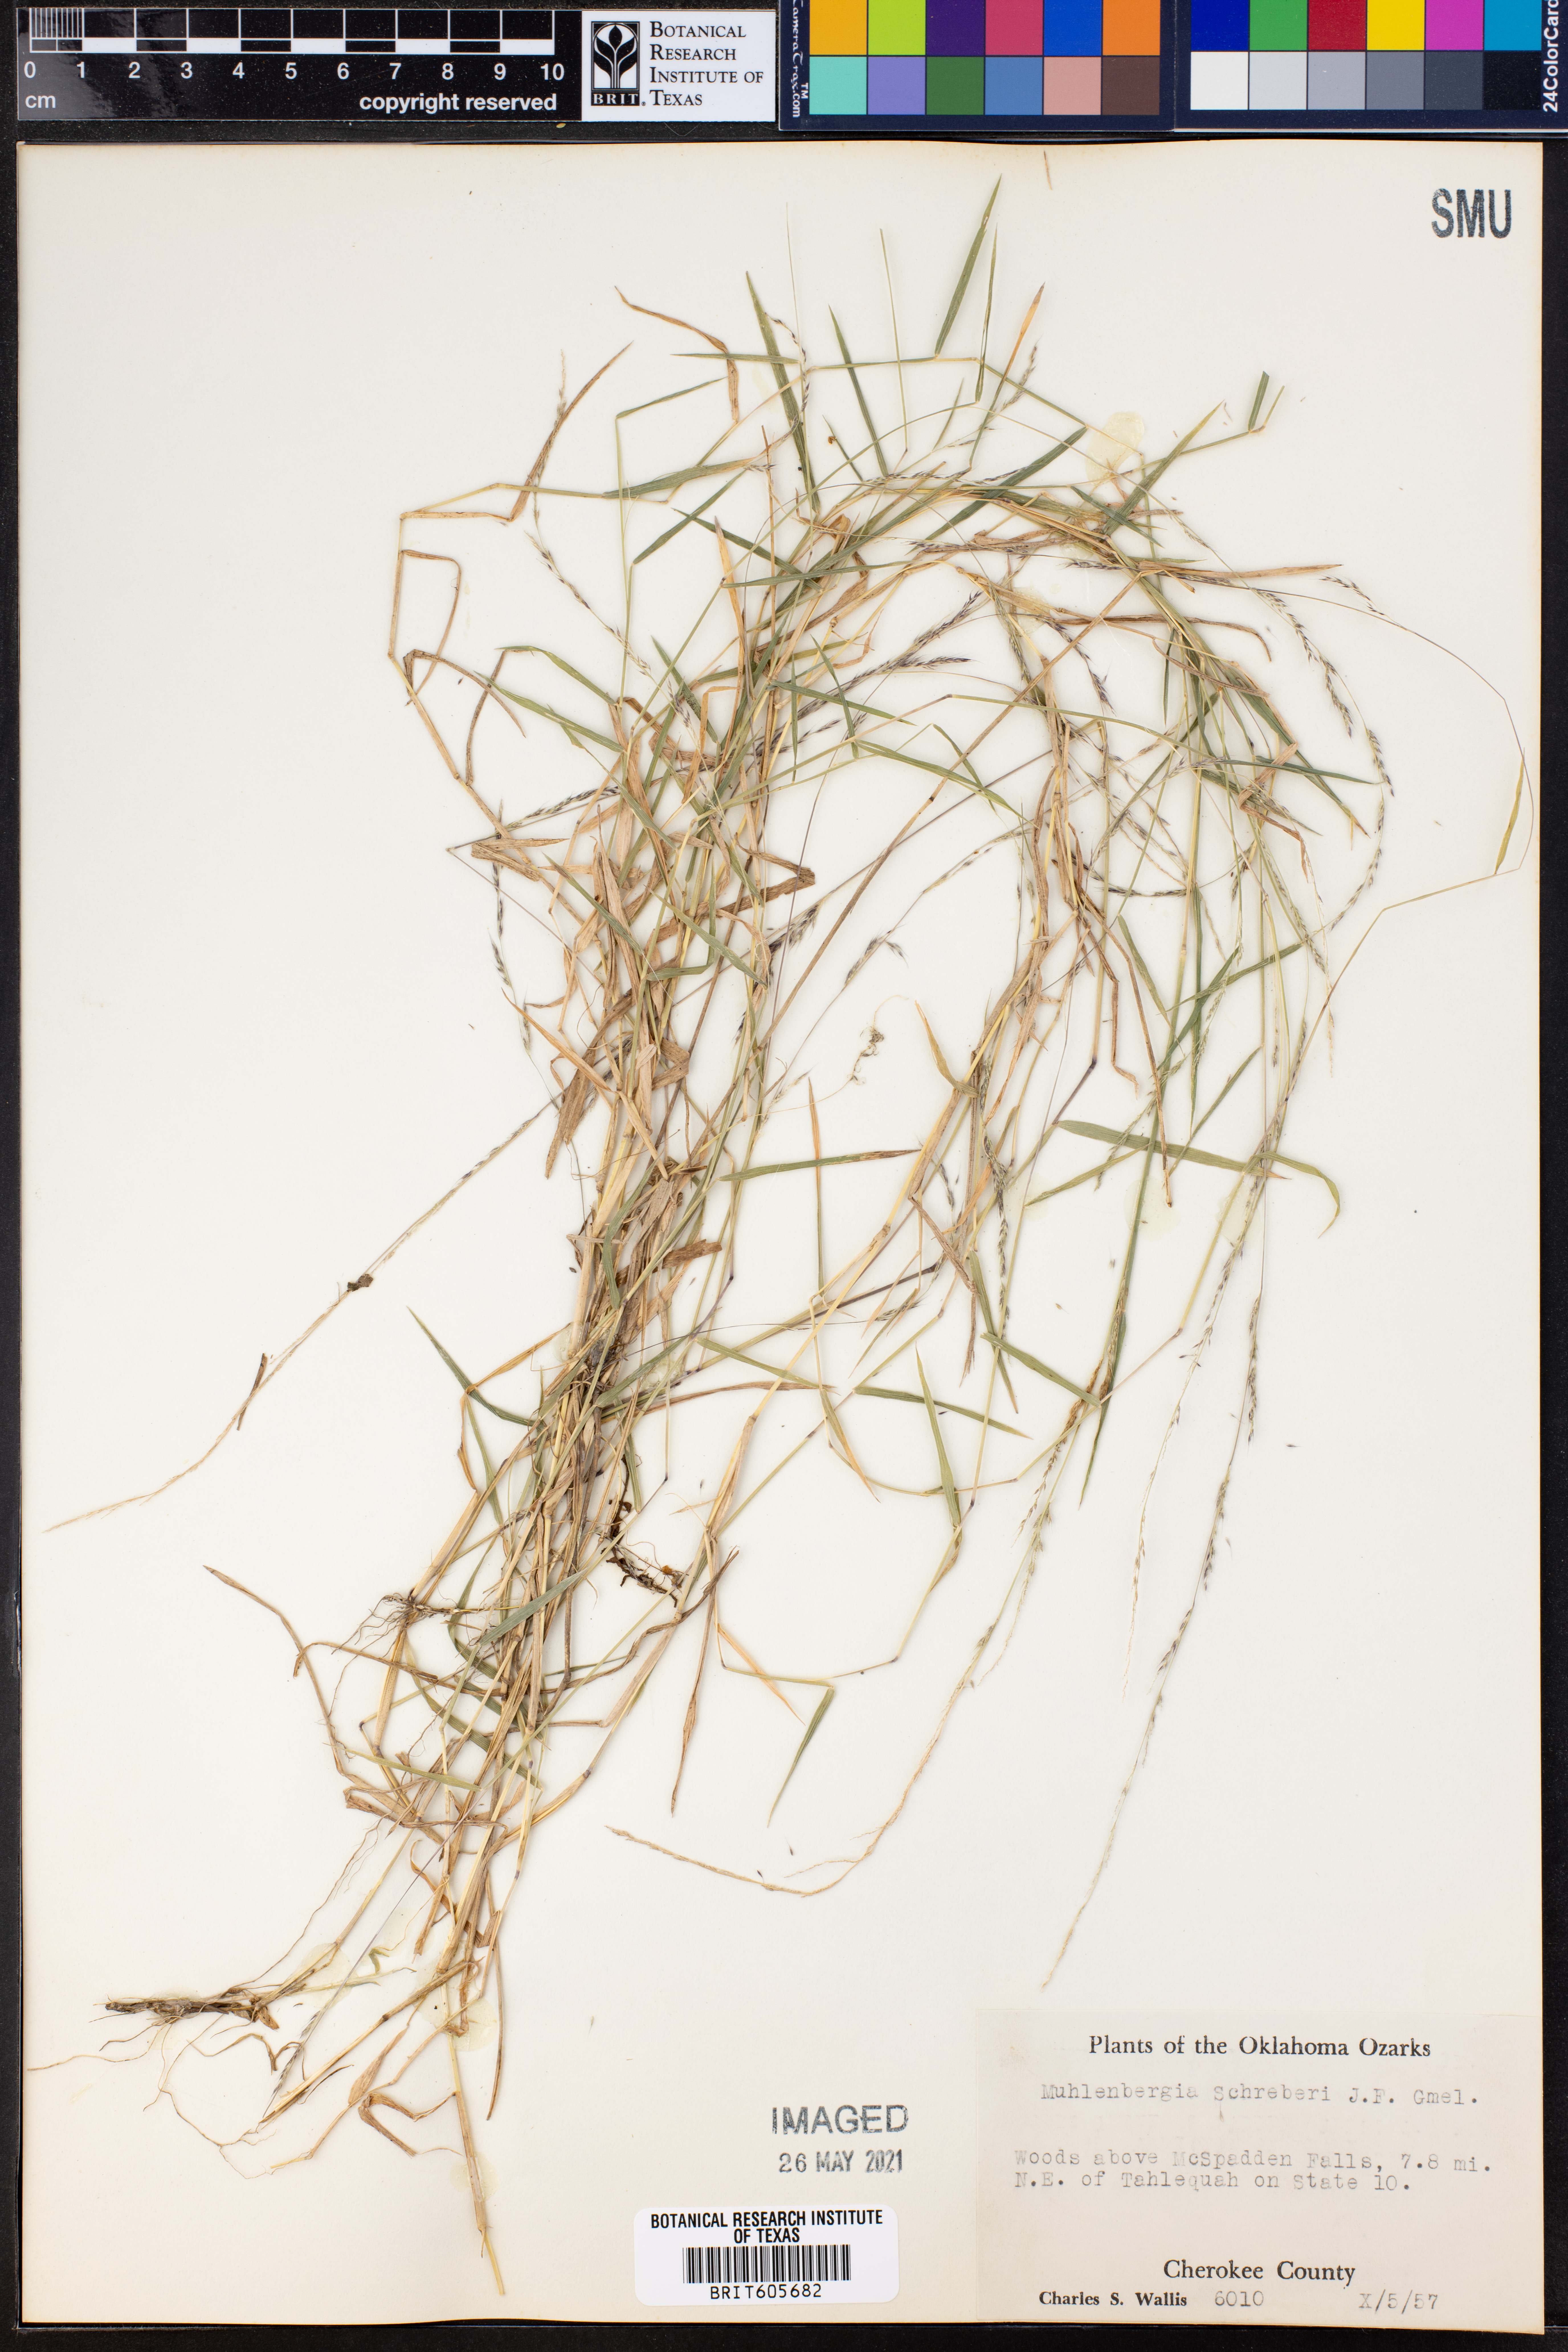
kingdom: Plantae
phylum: Tracheophyta
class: Liliopsida
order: Poales
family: Poaceae
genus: Muhlenbergia
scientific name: Muhlenbergia schreberi
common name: Nimblewill
